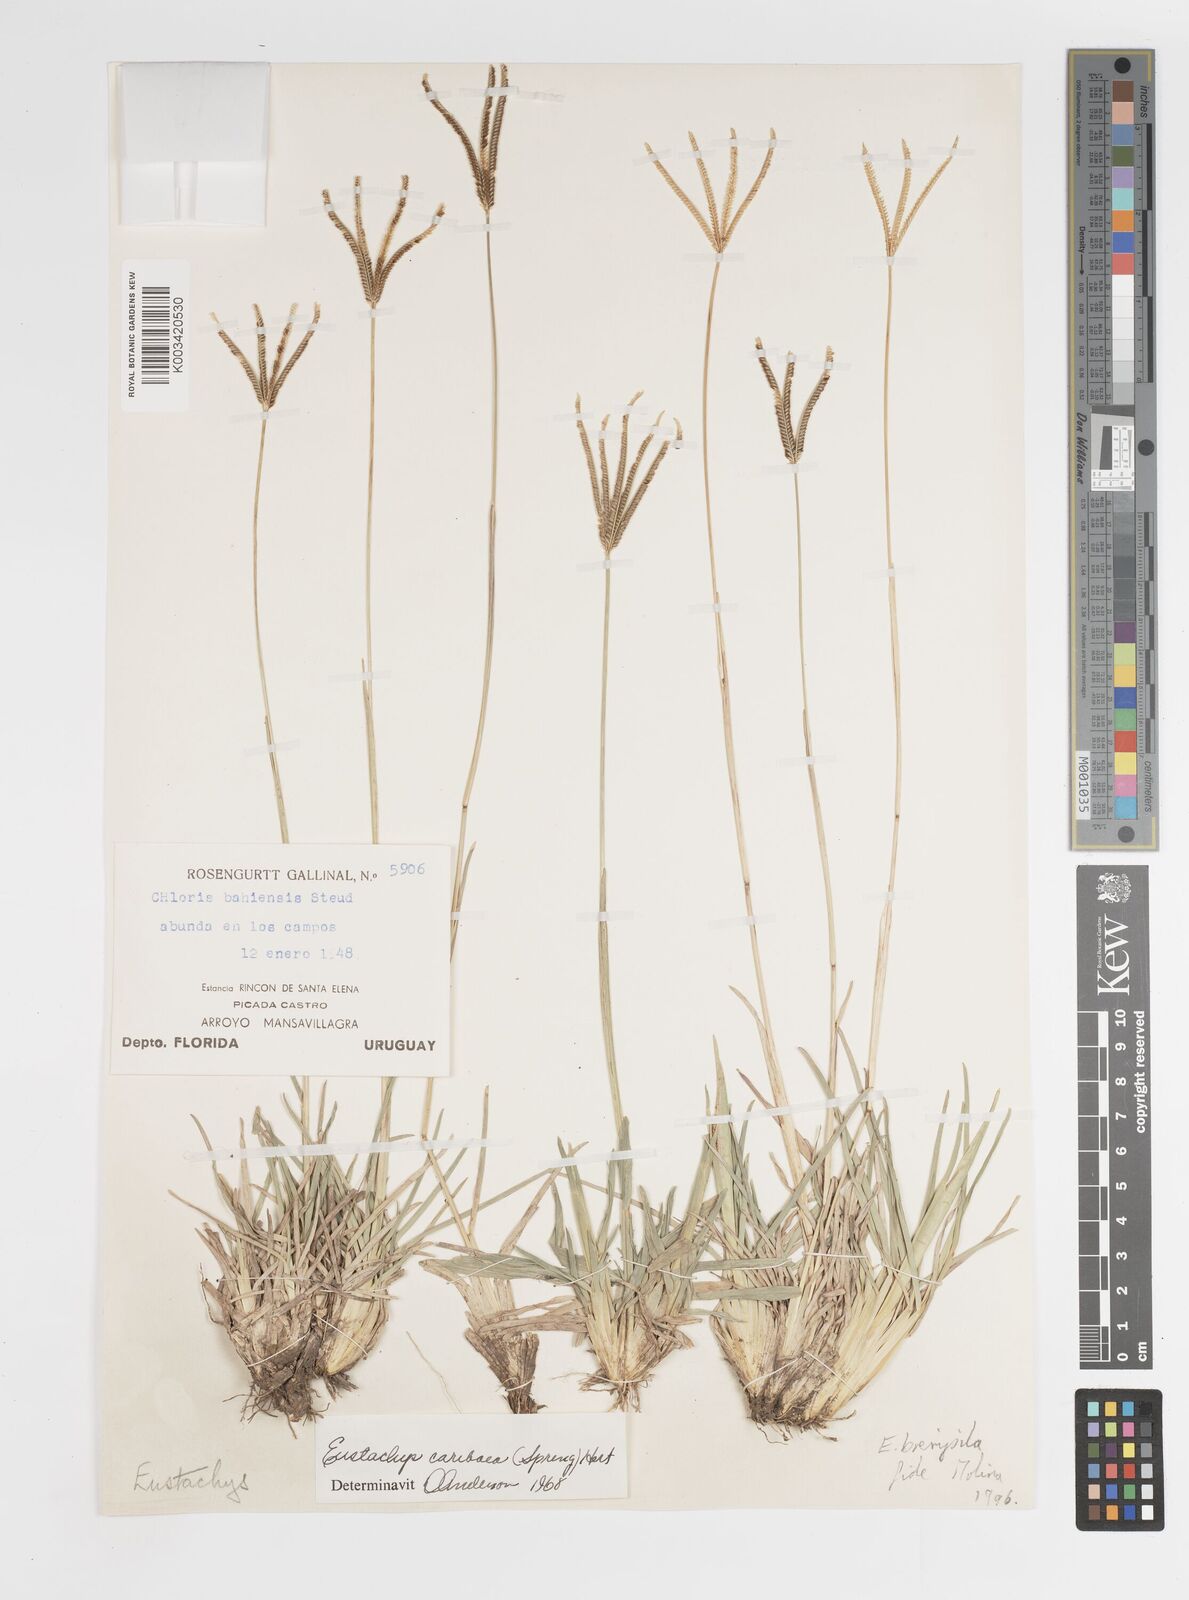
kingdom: Plantae
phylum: Tracheophyta
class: Liliopsida
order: Poales
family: Poaceae
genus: Eustachys
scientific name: Eustachys bahiensis
